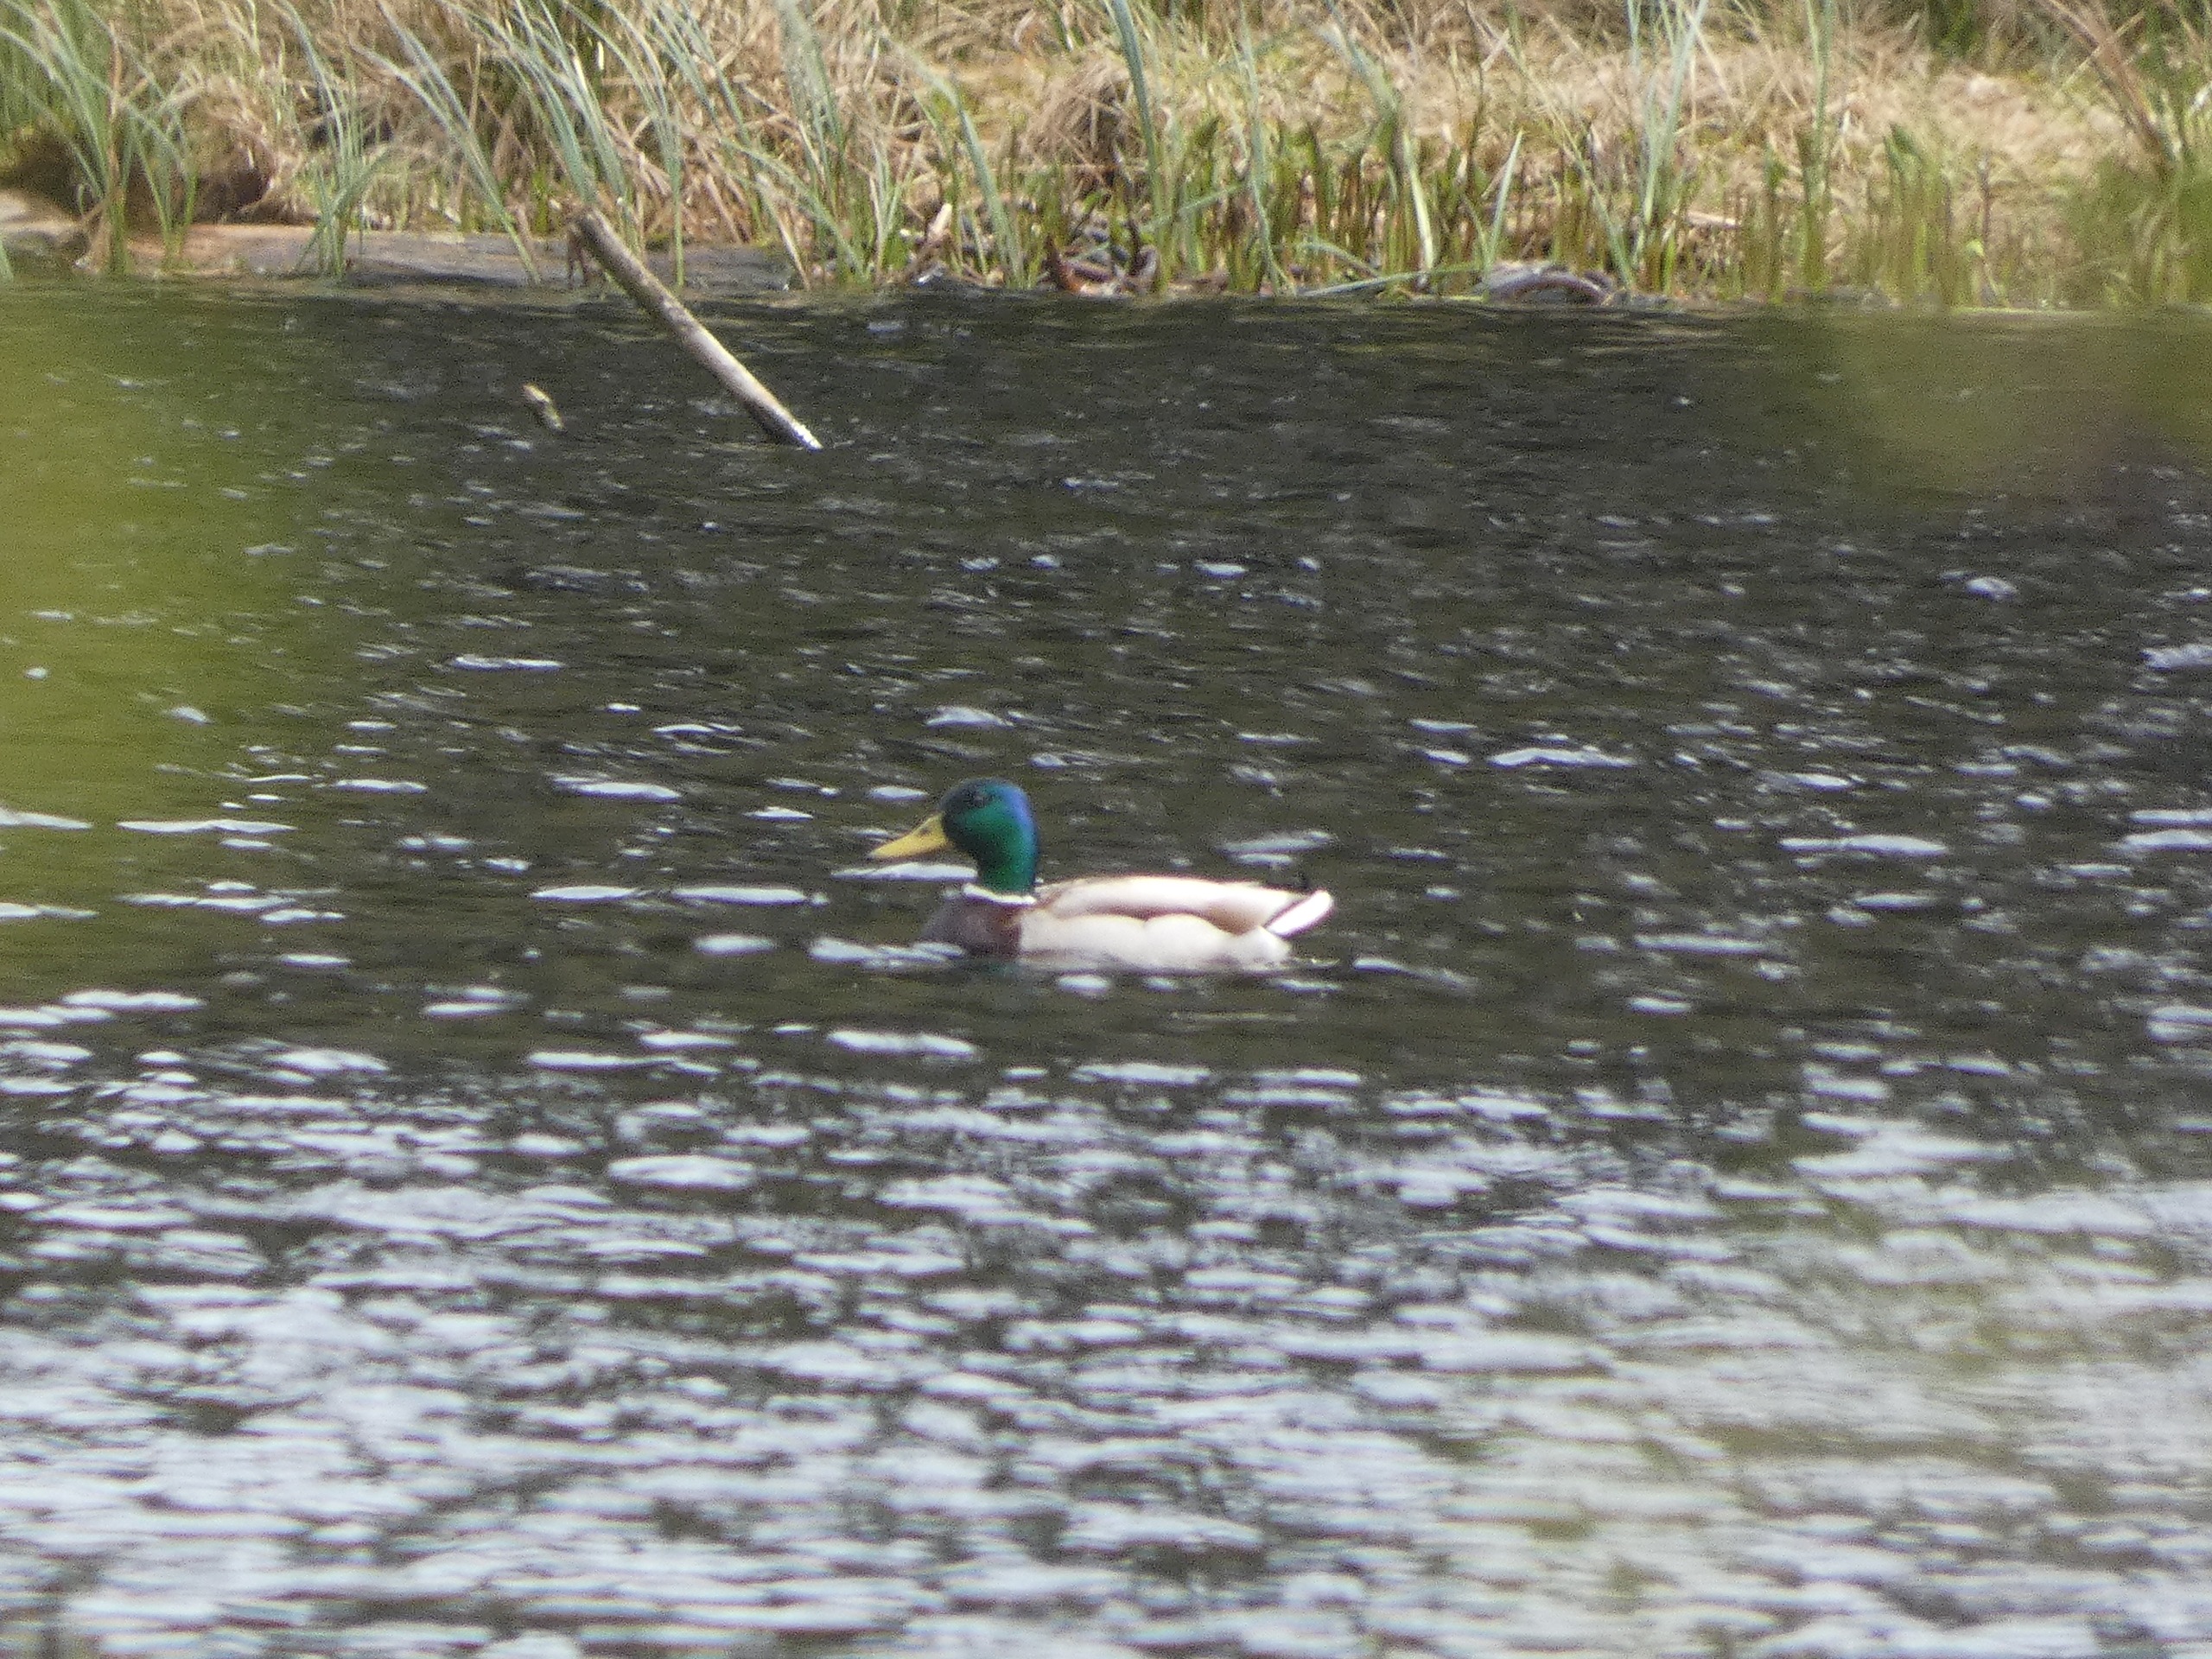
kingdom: Animalia
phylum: Chordata
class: Aves
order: Anseriformes
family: Anatidae
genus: Anas
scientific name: Anas platyrhynchos
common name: Gråand
